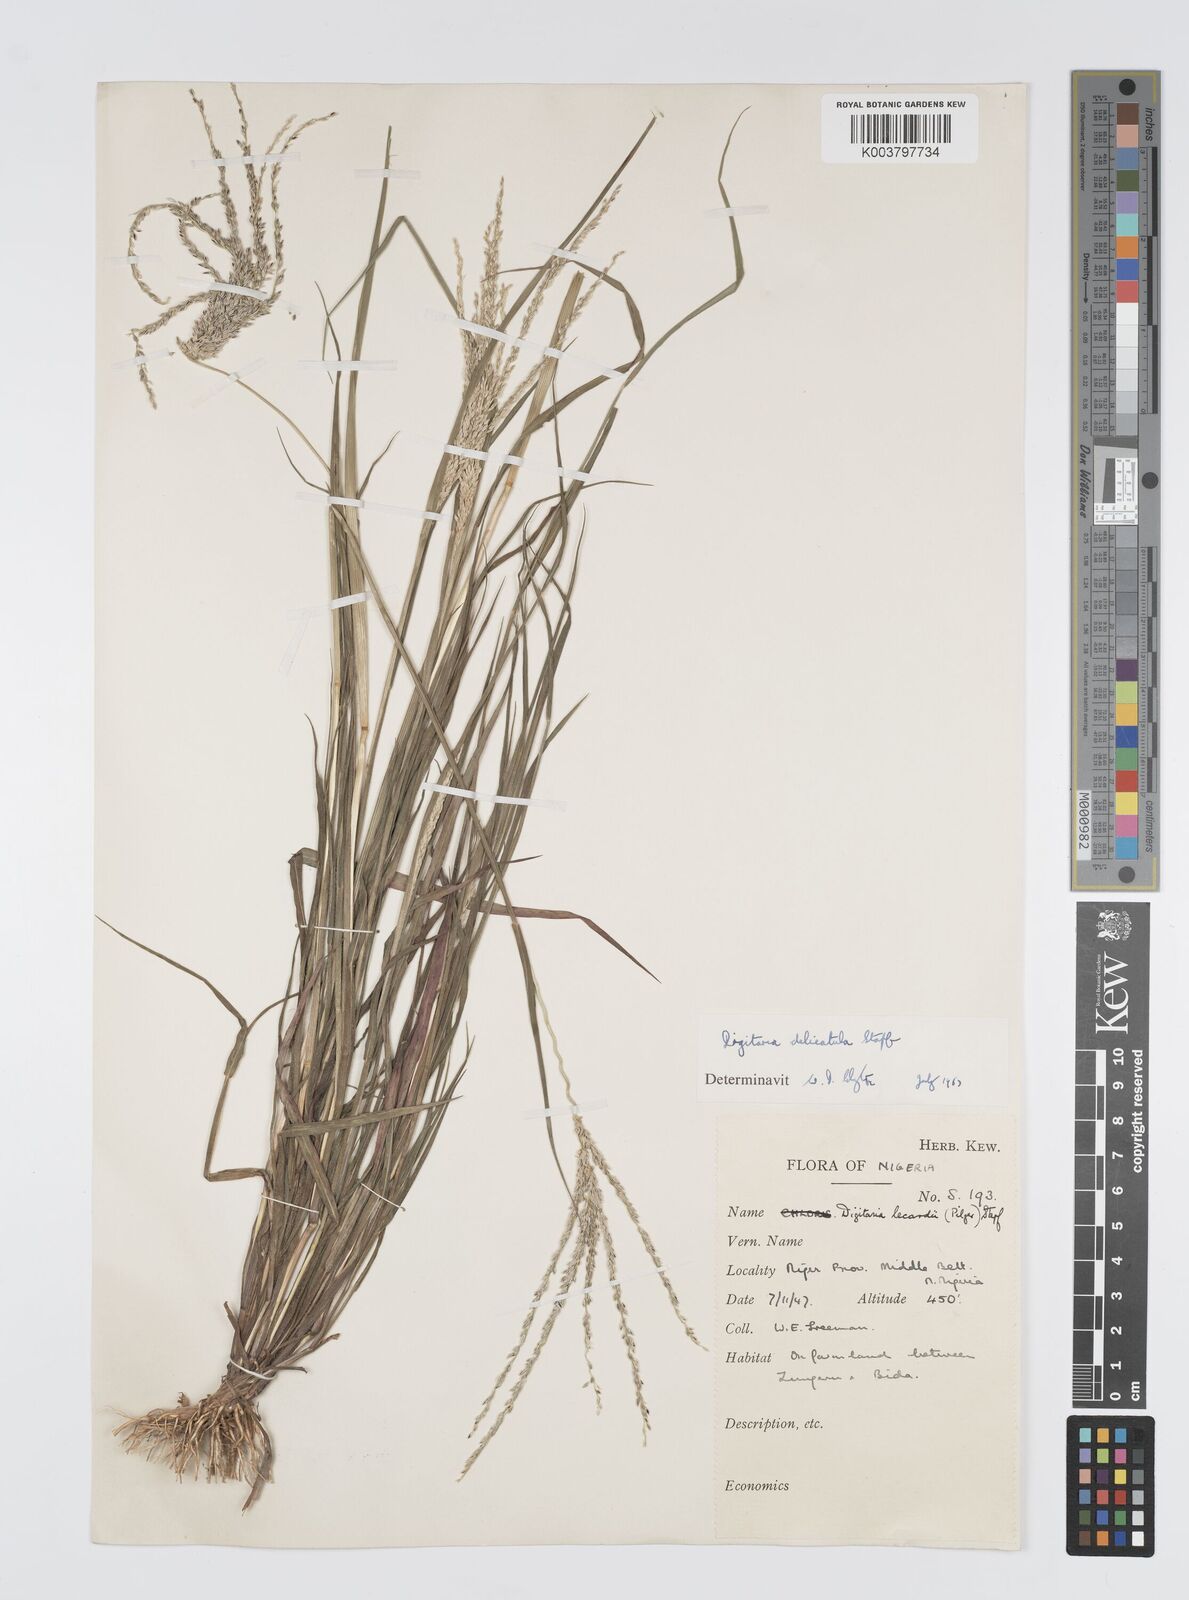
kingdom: Plantae
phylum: Tracheophyta
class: Liliopsida
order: Poales
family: Poaceae
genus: Digitaria
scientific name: Digitaria delicatula
